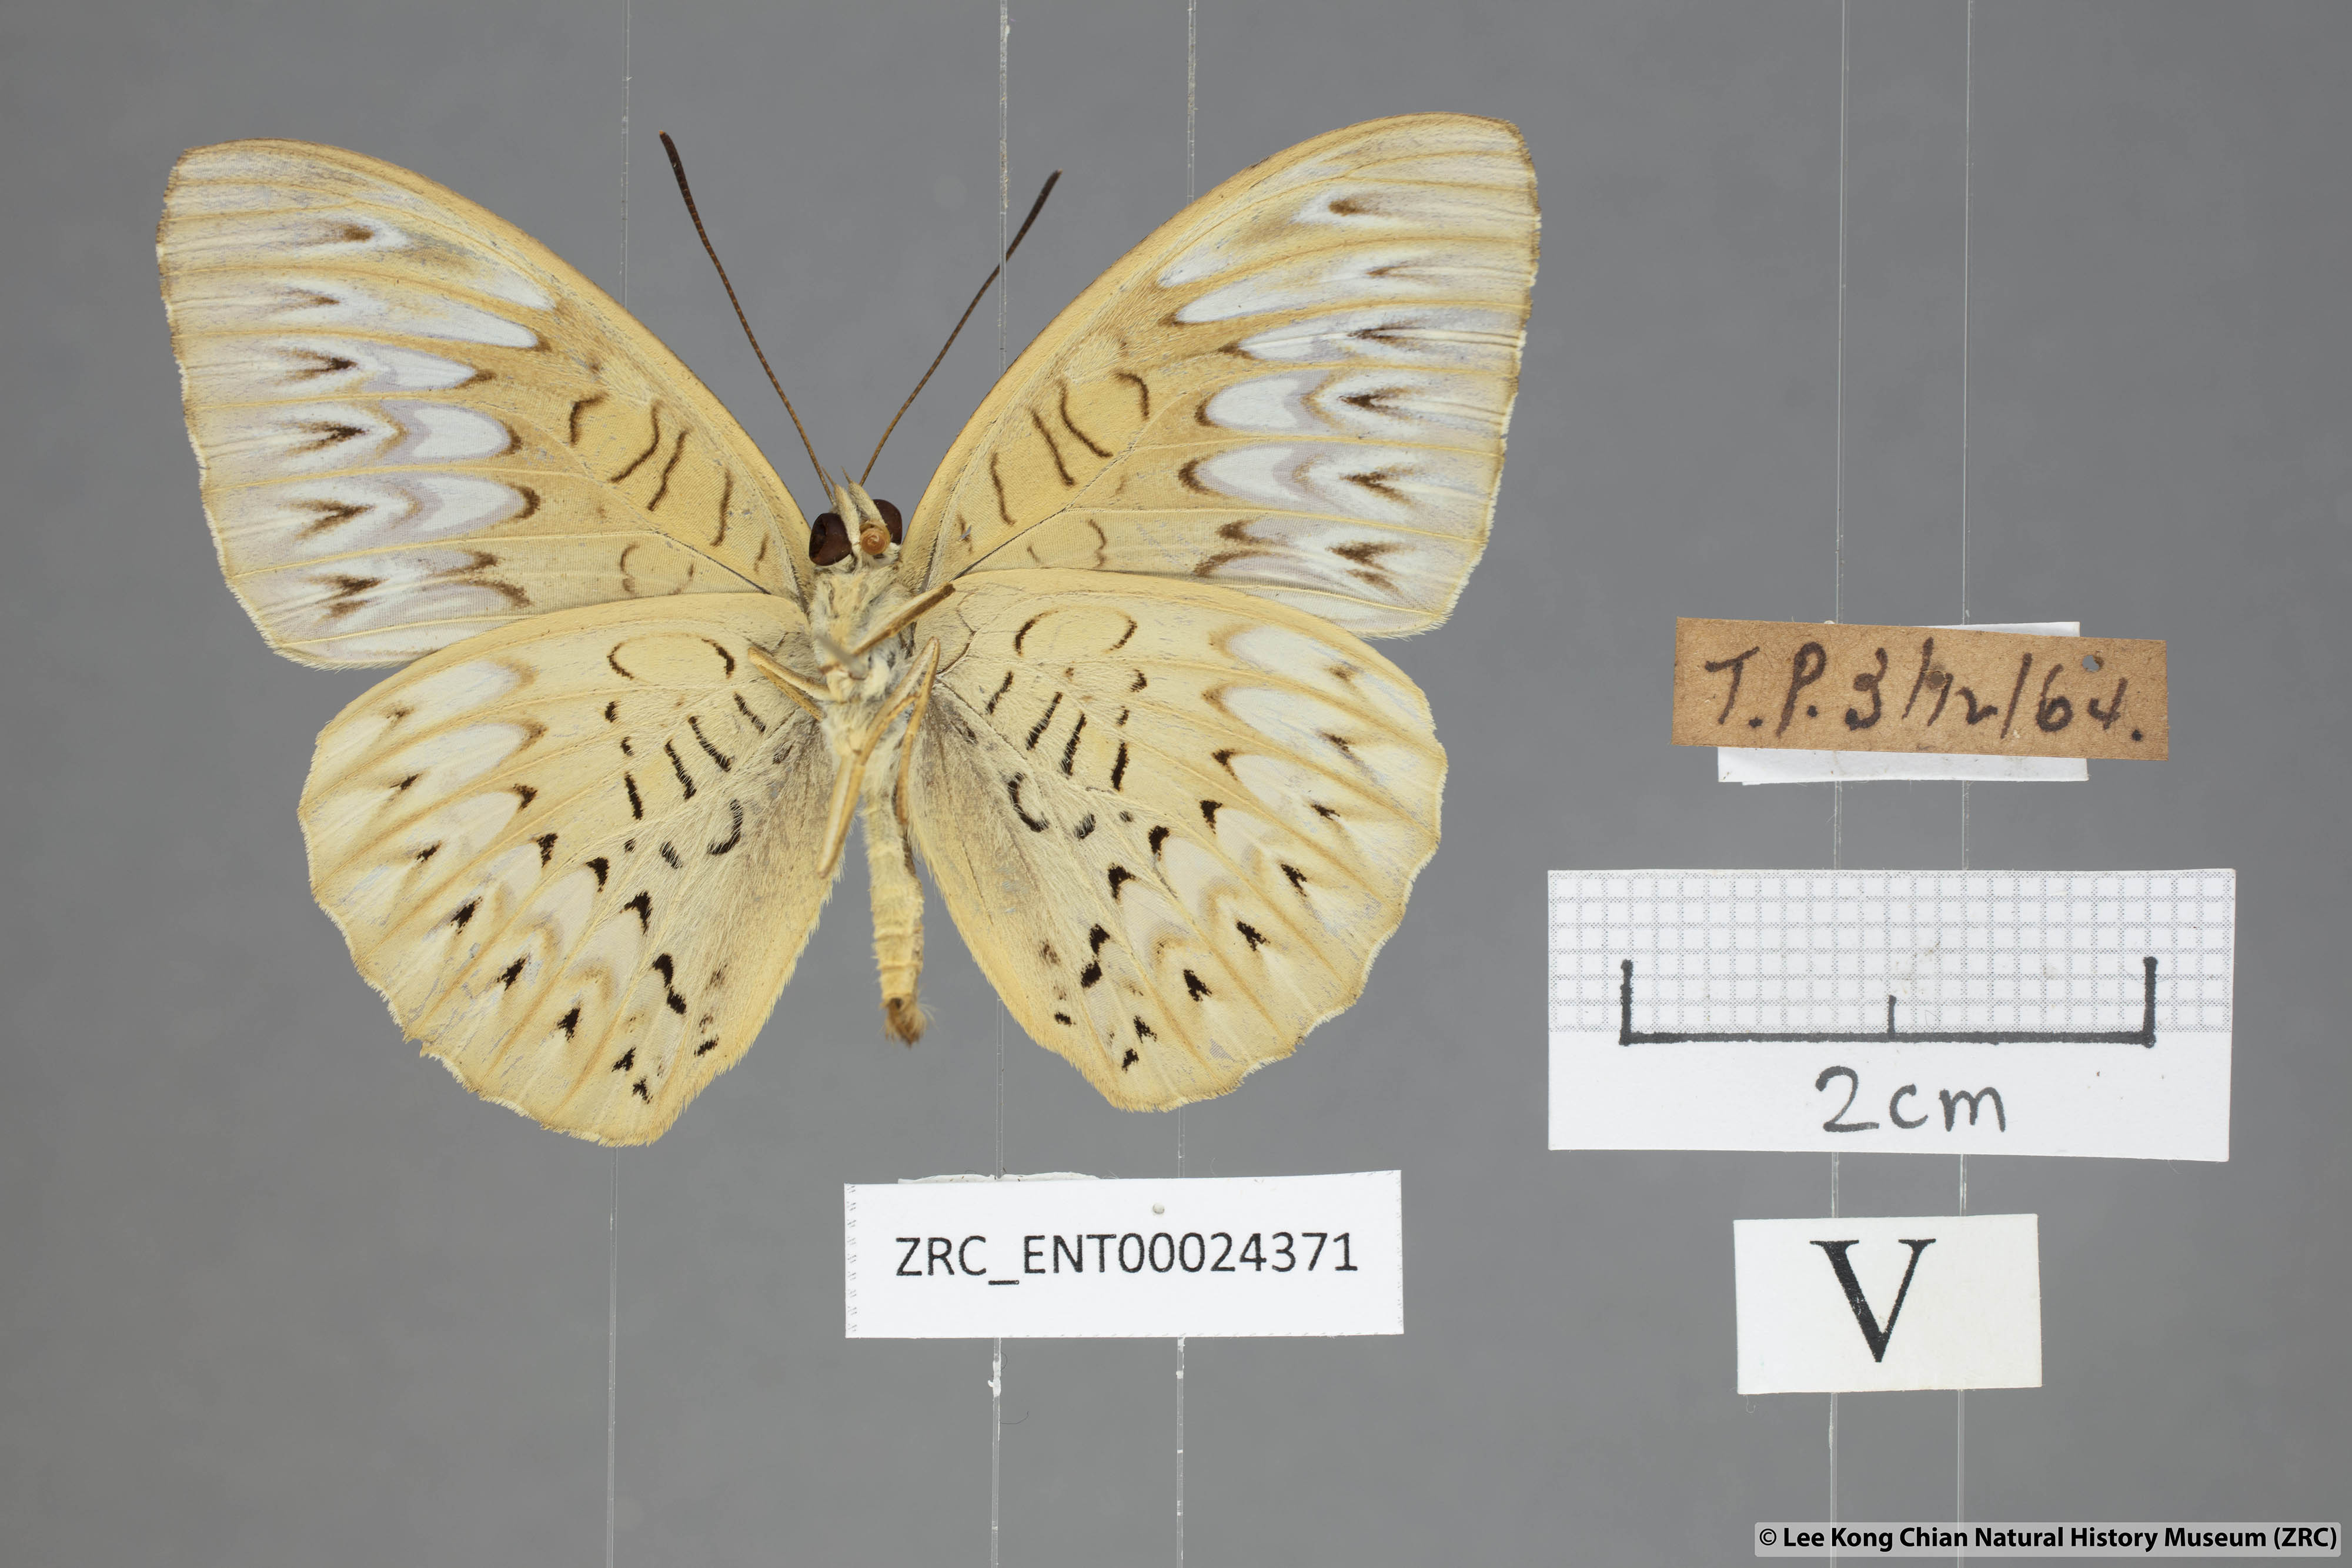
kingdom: Animalia
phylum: Arthropoda
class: Insecta
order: Lepidoptera
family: Nymphalidae
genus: Tanaecia
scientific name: Tanaecia aruna
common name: Short-banded viscount
